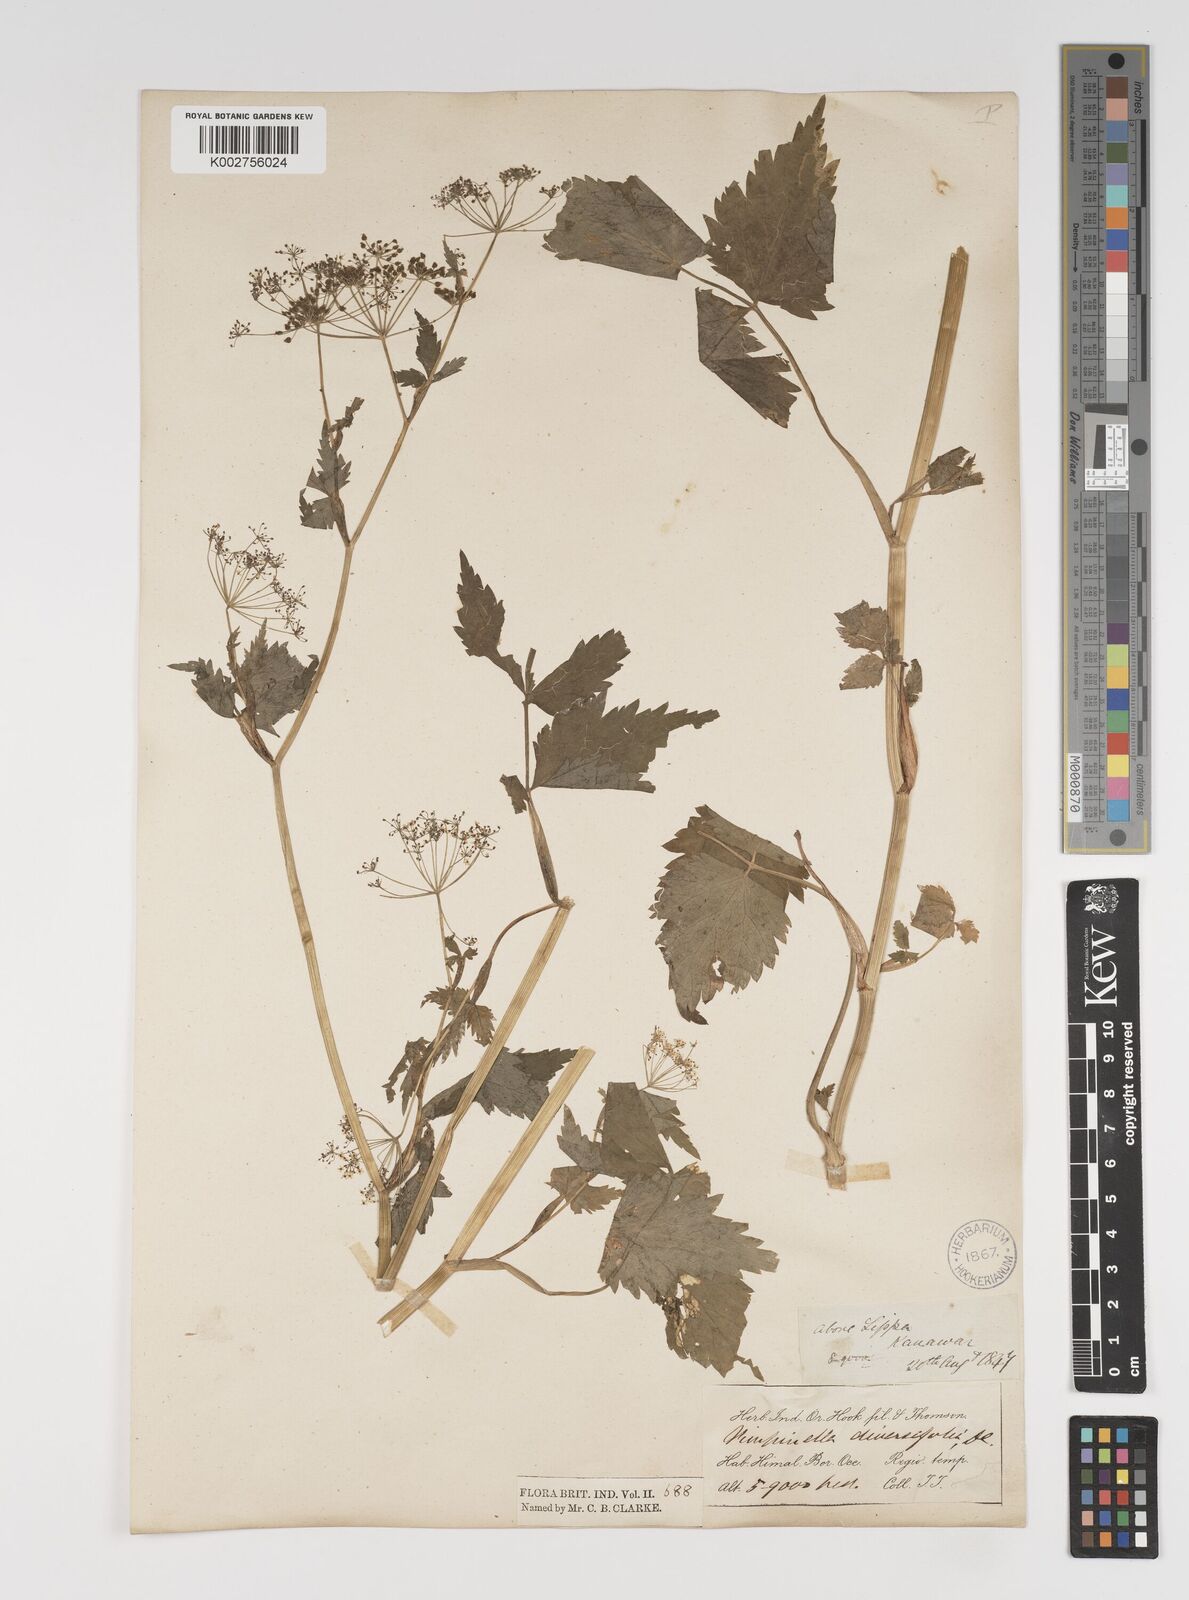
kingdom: Plantae
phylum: Tracheophyta
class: Magnoliopsida
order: Apiales
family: Apiaceae
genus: Pimpinella
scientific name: Pimpinella diversifolia
